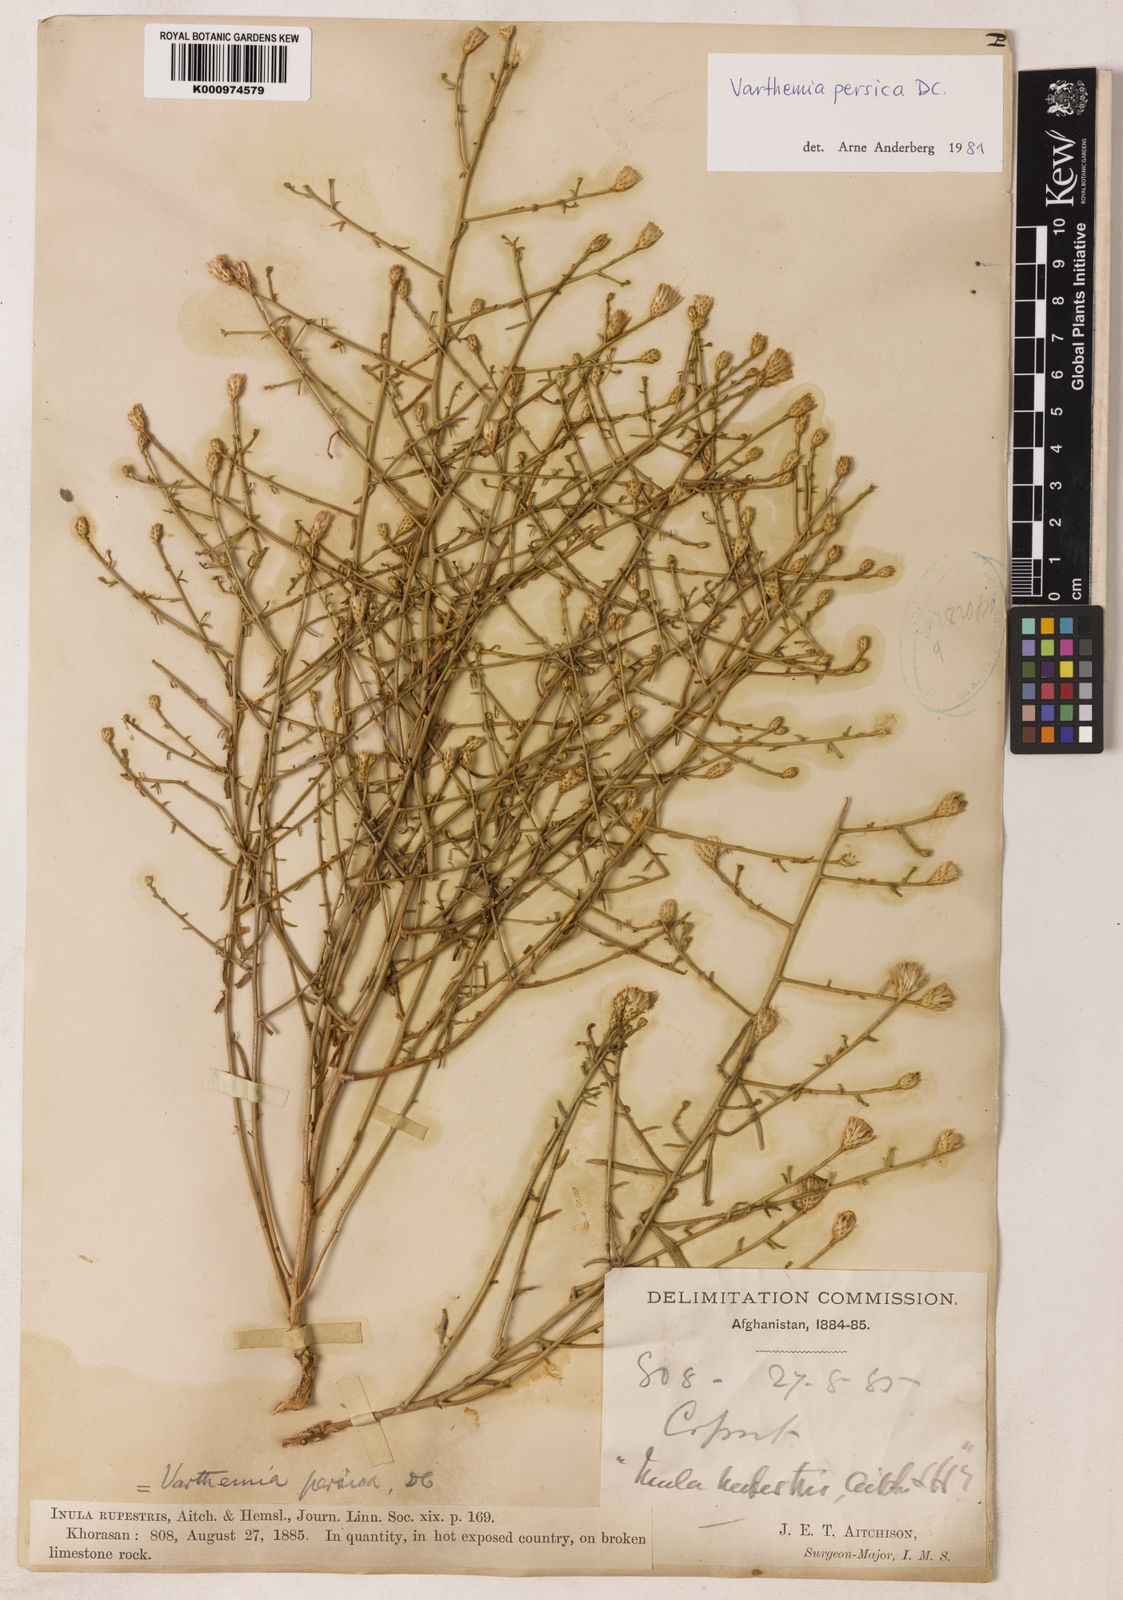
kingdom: Plantae
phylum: Tracheophyta
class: Magnoliopsida
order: Asterales
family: Asteraceae
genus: Pentanema
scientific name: Pentanema persicum
